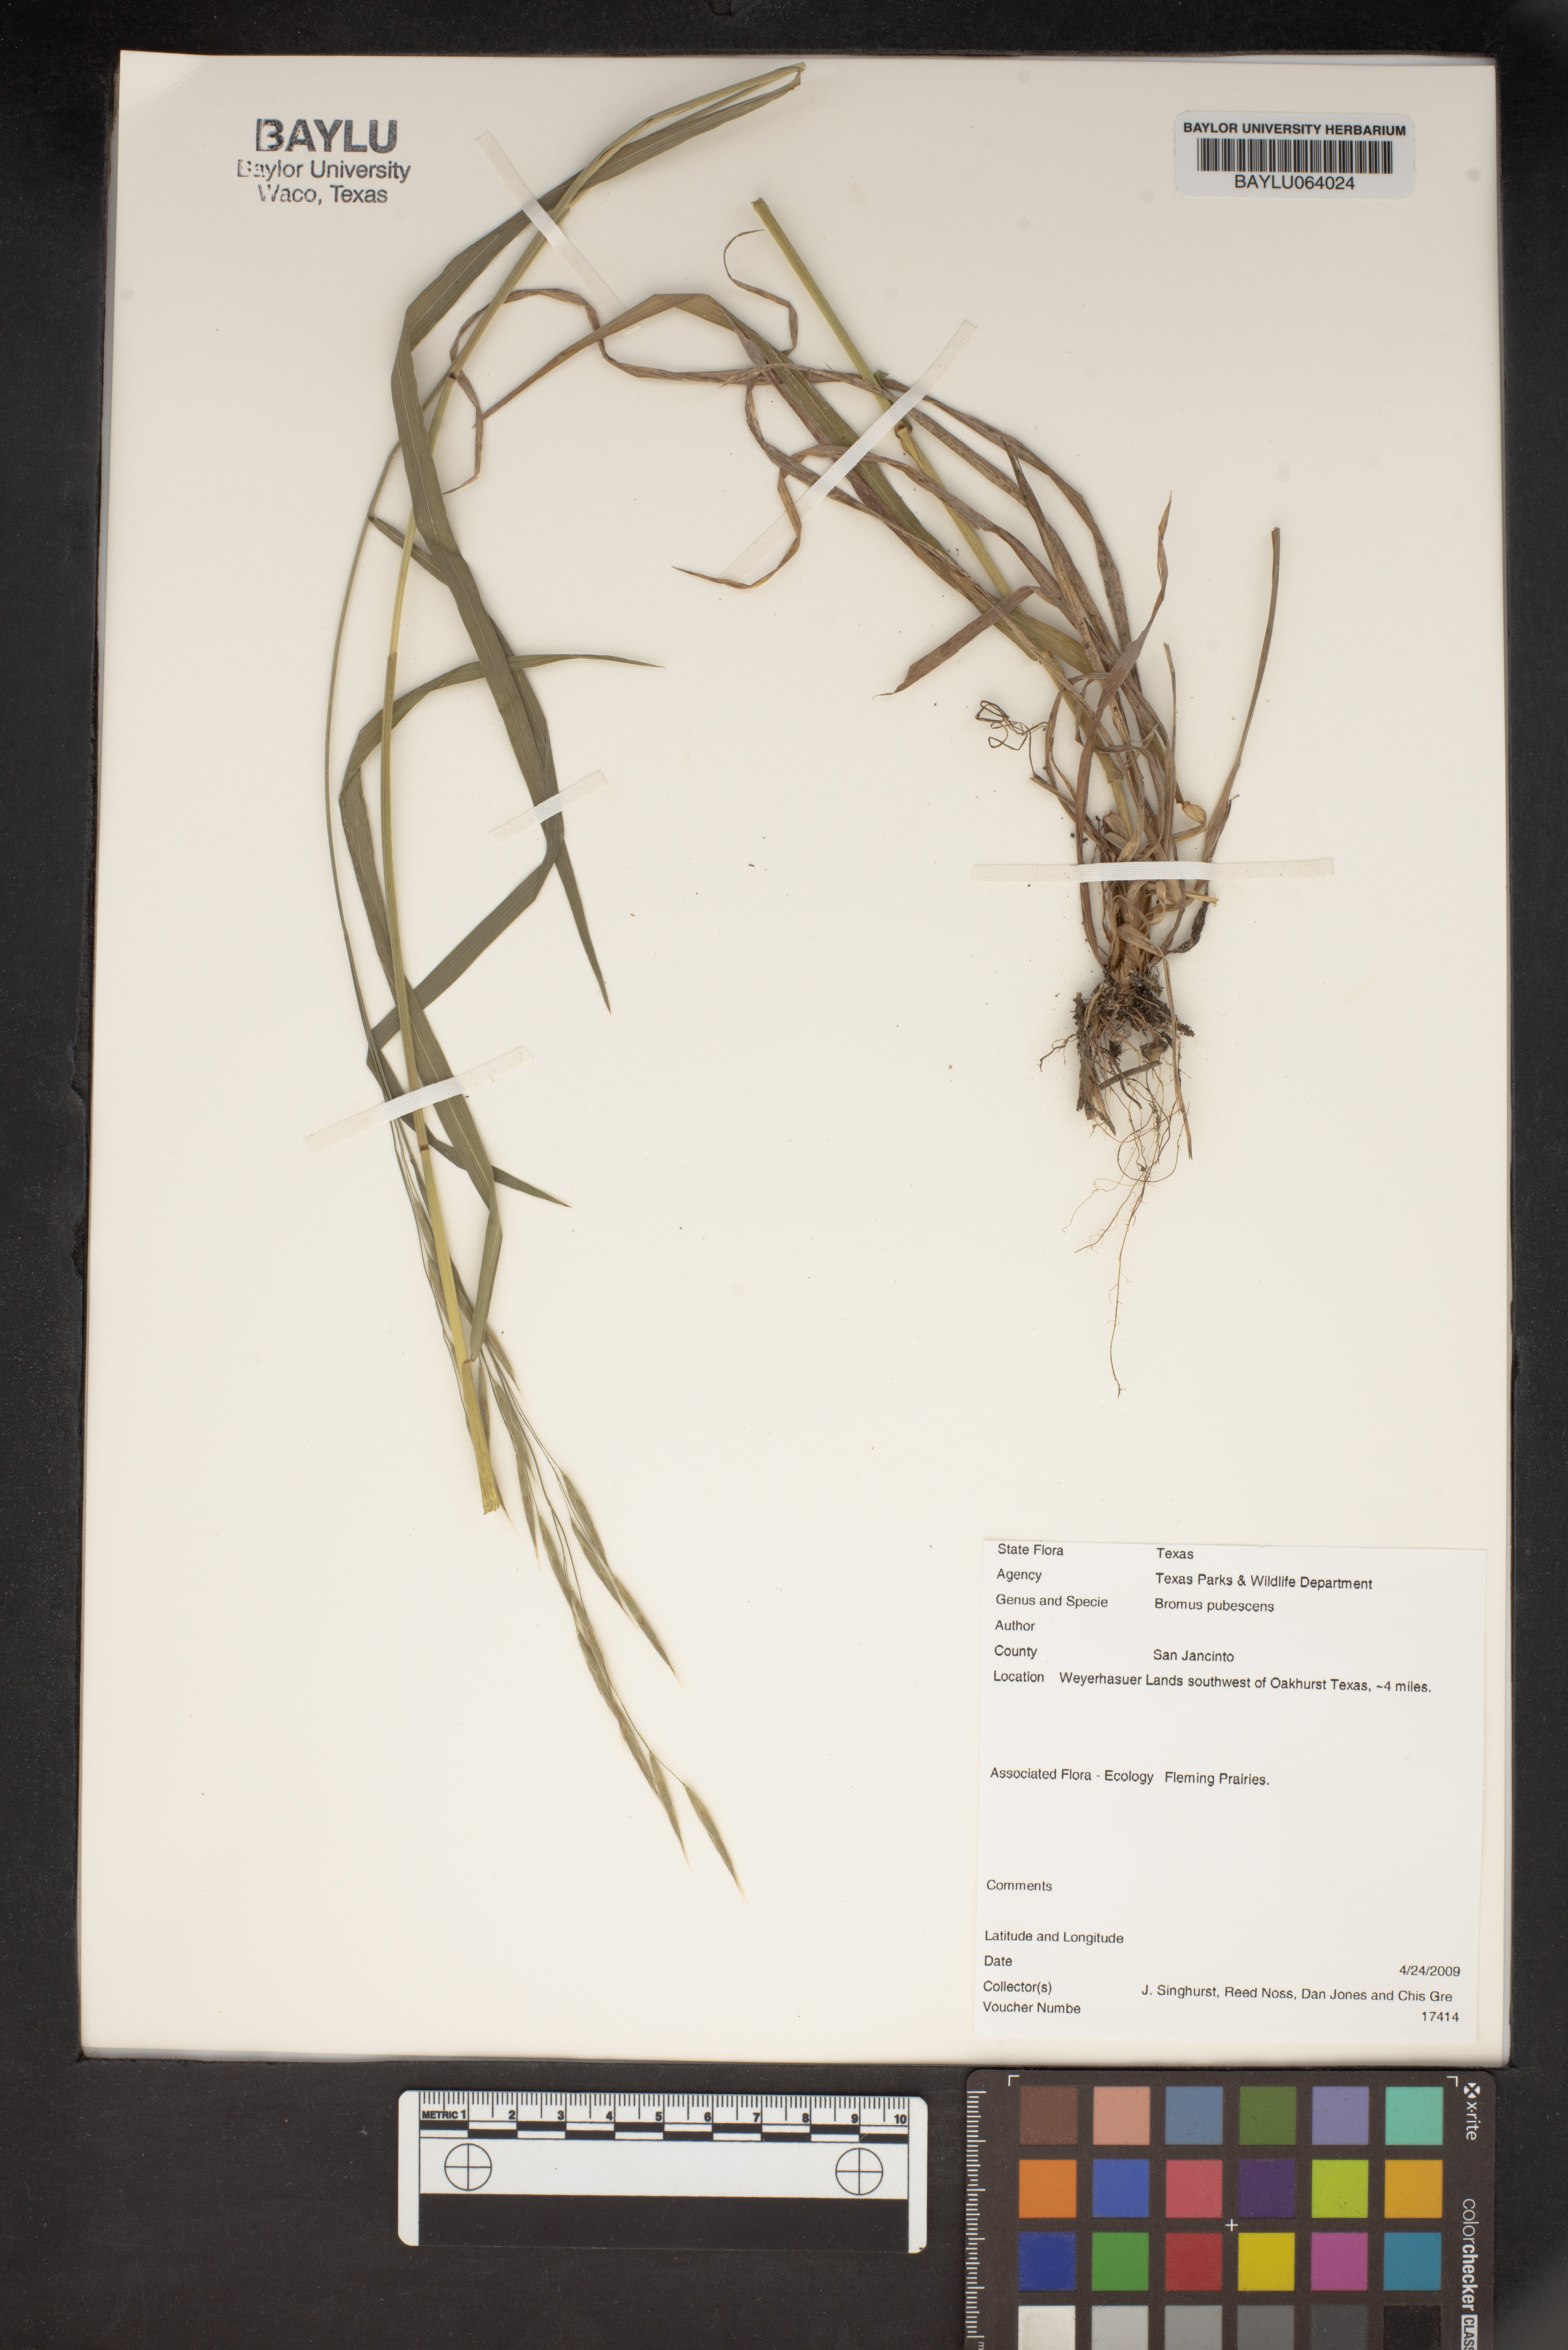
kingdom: Plantae
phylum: Tracheophyta
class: Liliopsida
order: Poales
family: Poaceae
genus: Bromus
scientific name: Bromus pubescens
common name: Hairy wood brome grass
